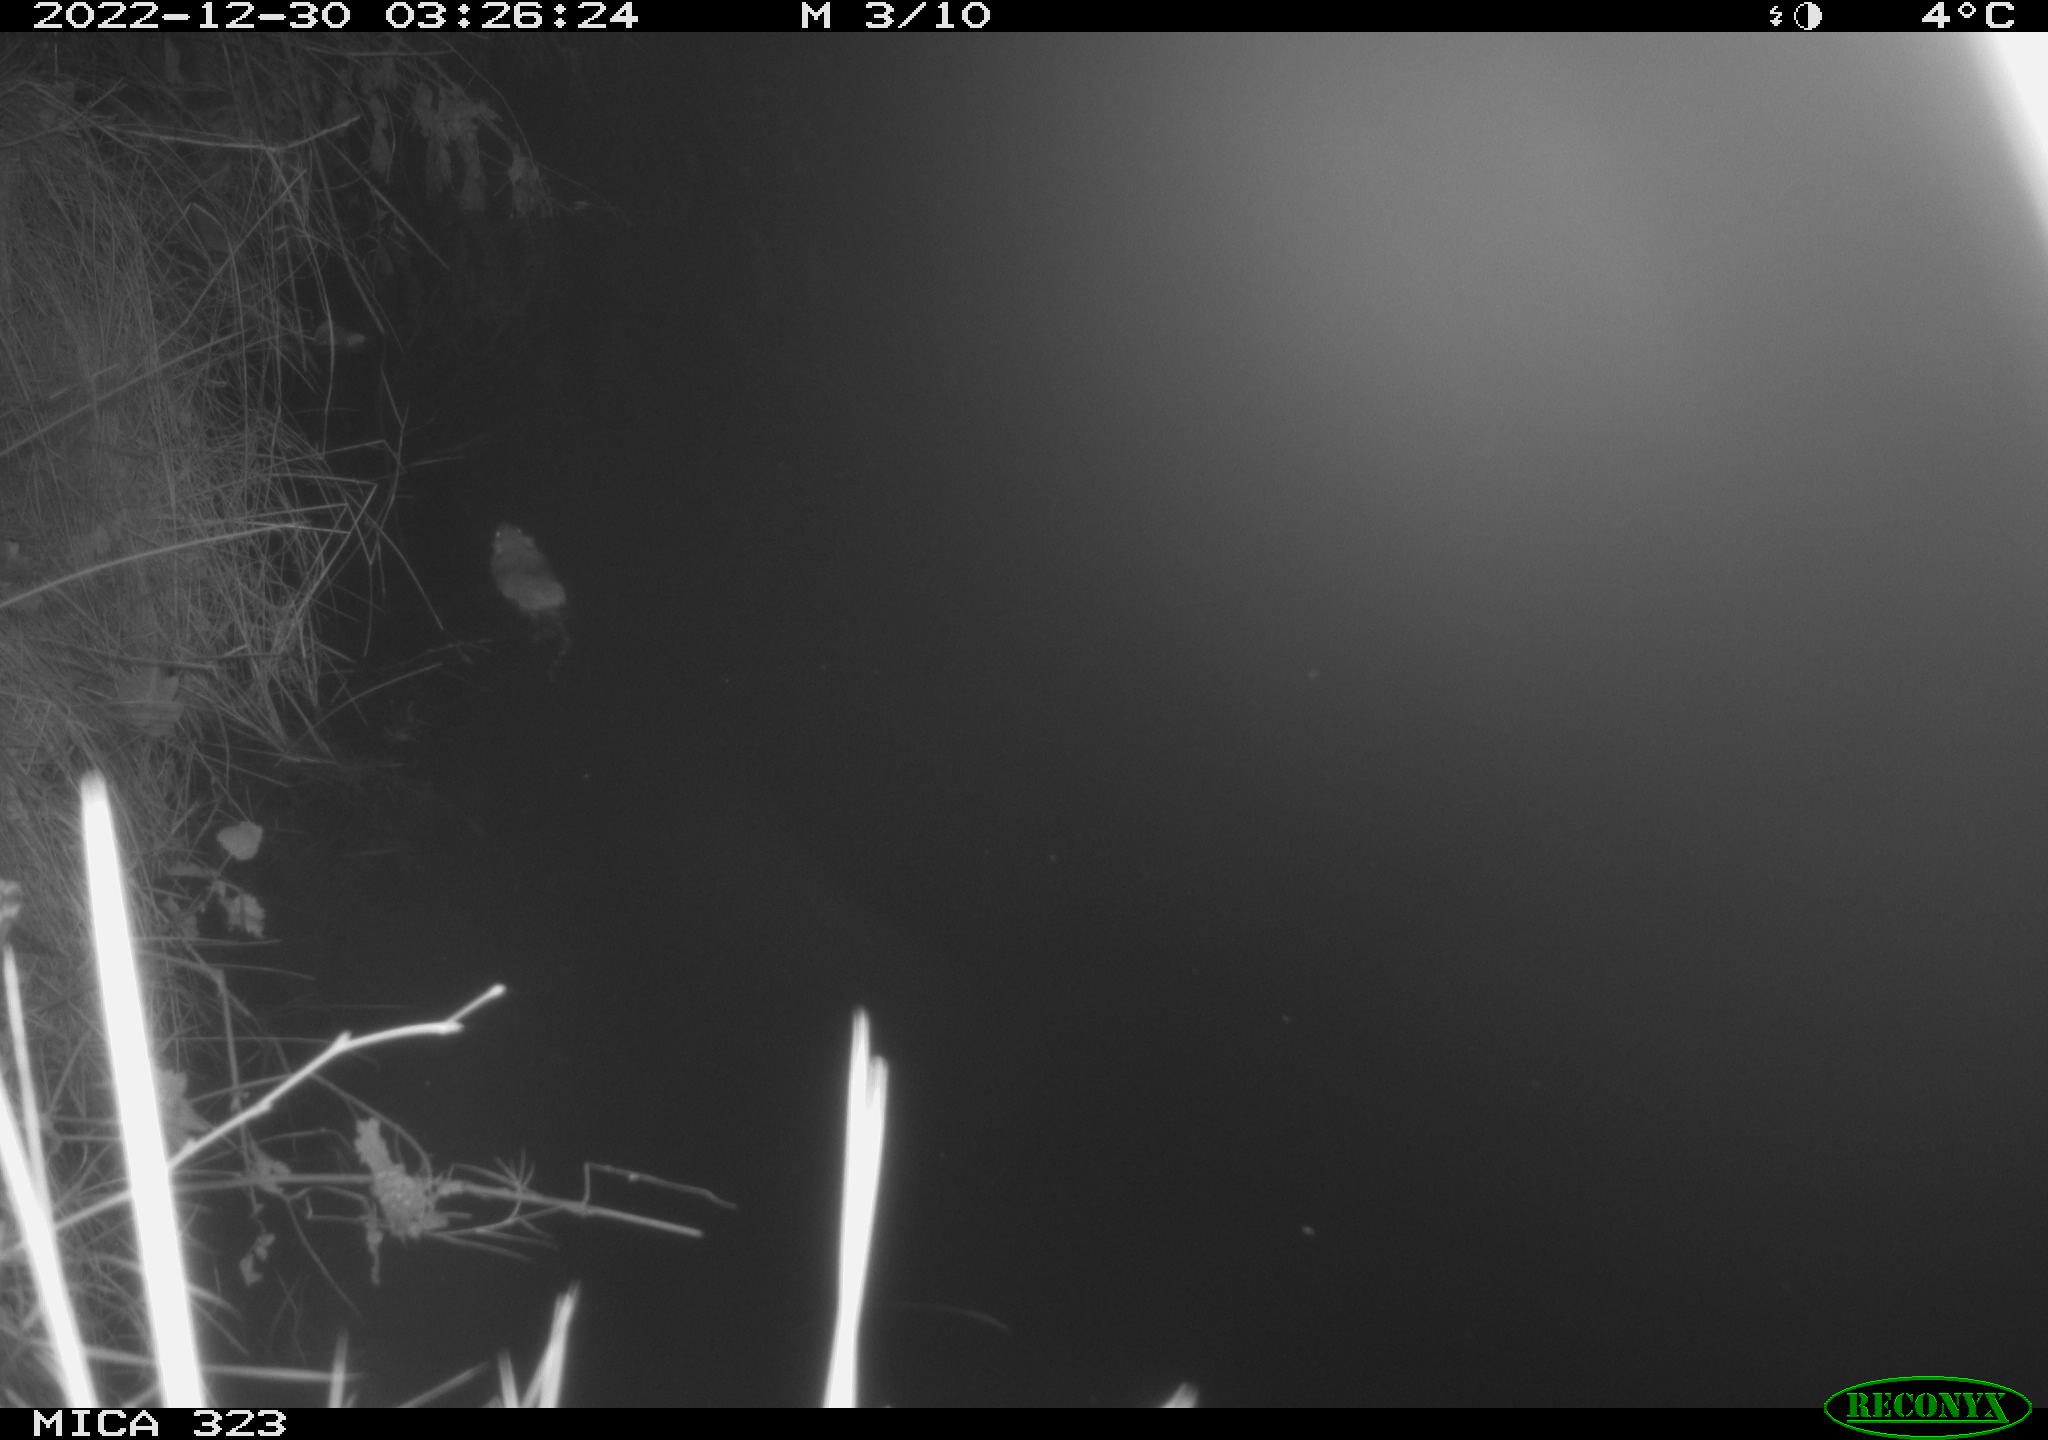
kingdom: Animalia
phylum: Chordata
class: Mammalia
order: Rodentia
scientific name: Rodentia
